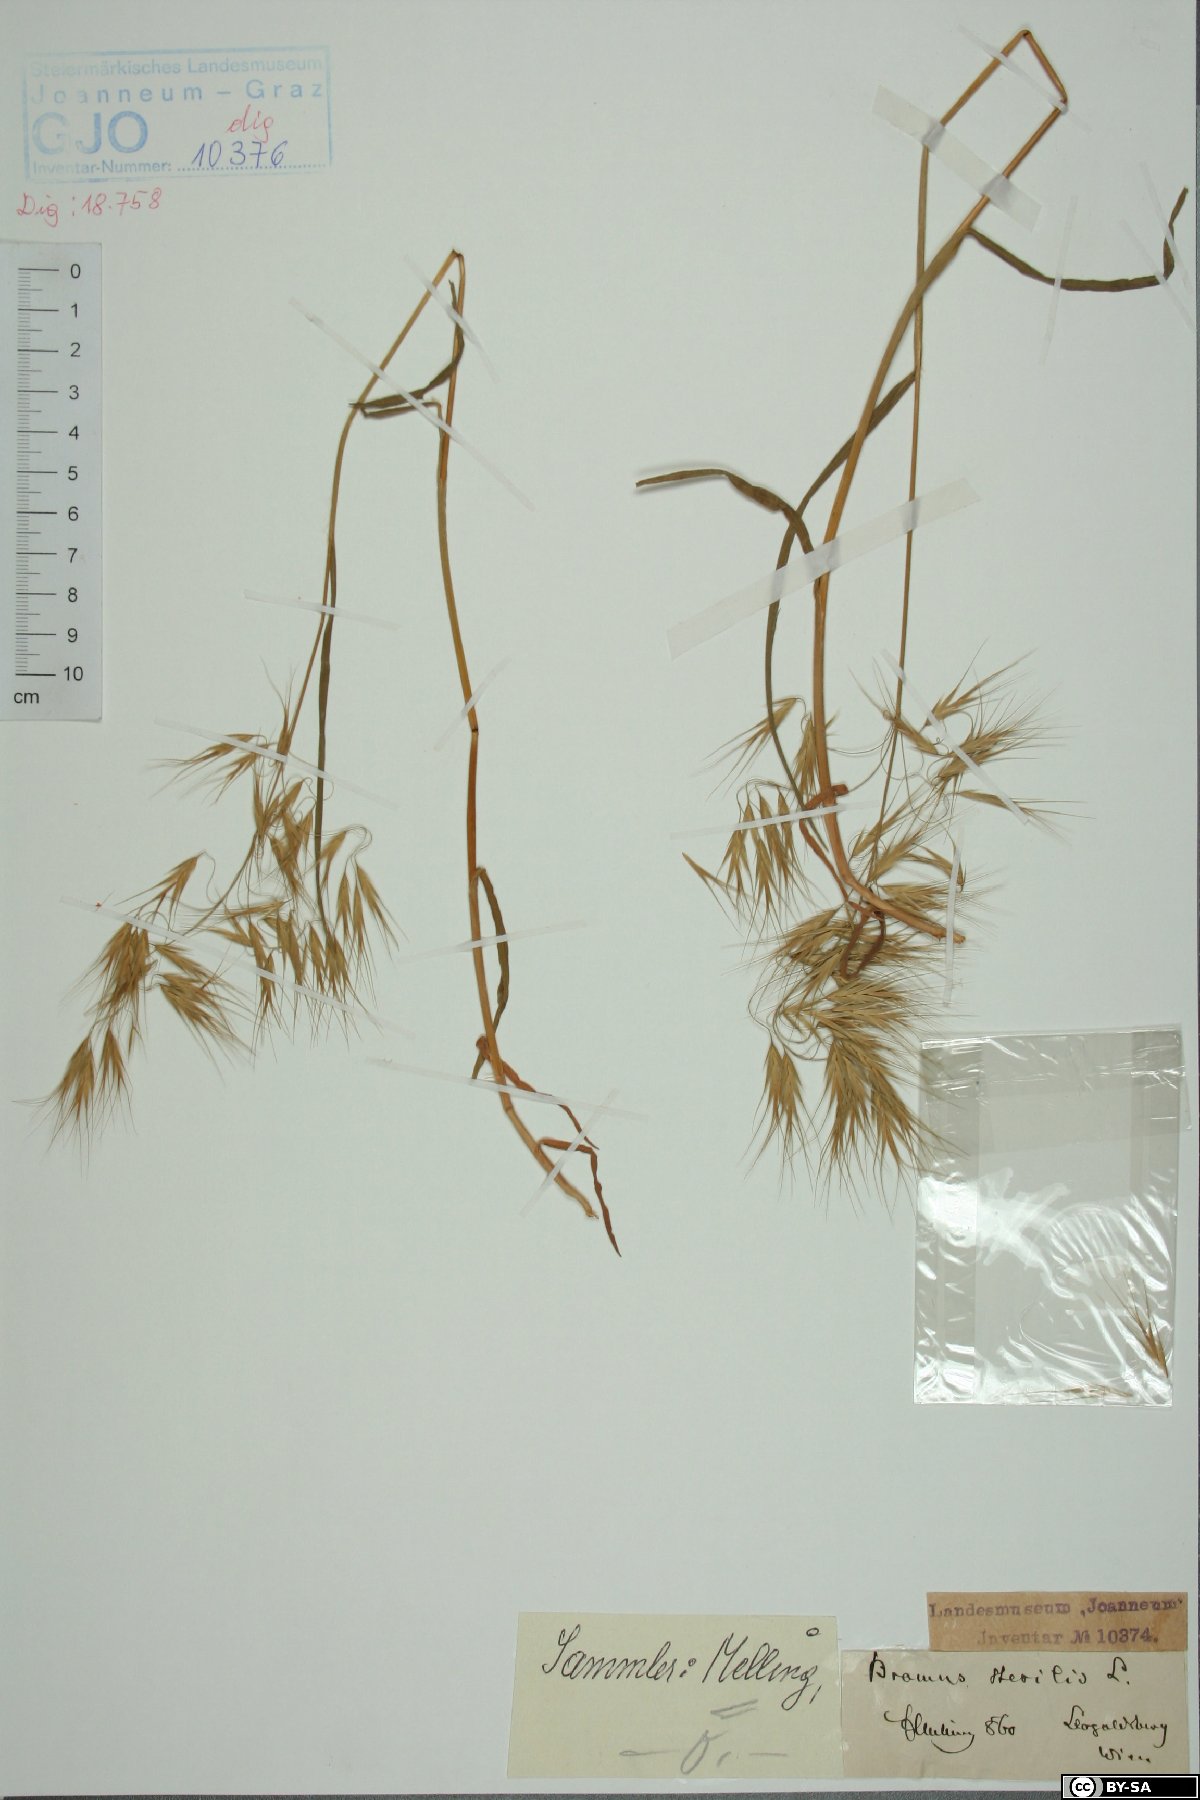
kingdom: Plantae
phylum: Tracheophyta
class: Liliopsida
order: Poales
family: Poaceae
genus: Bromus
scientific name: Bromus sterilis
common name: Poverty brome
